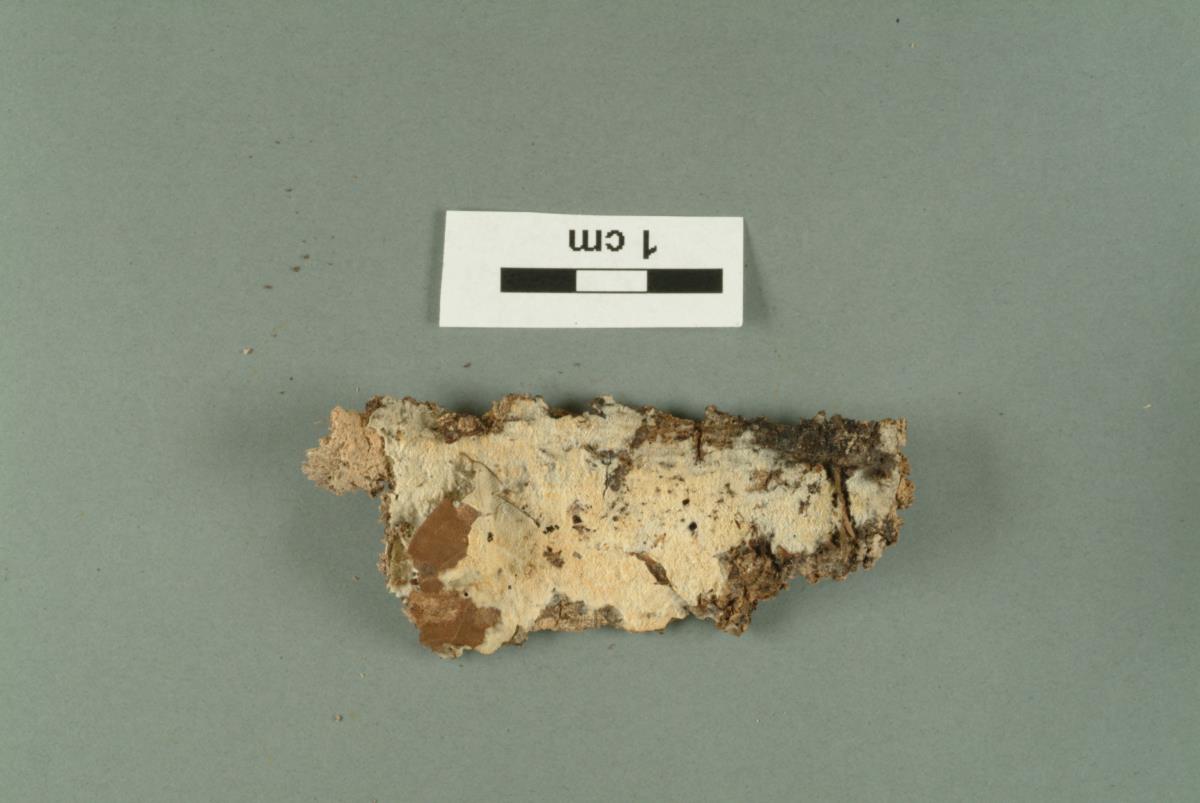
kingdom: Fungi
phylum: Basidiomycota
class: Agaricomycetes
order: Hymenochaetales
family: Hyphodontiaceae
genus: Hyphodontia
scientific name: Hyphodontia barba-jovis
